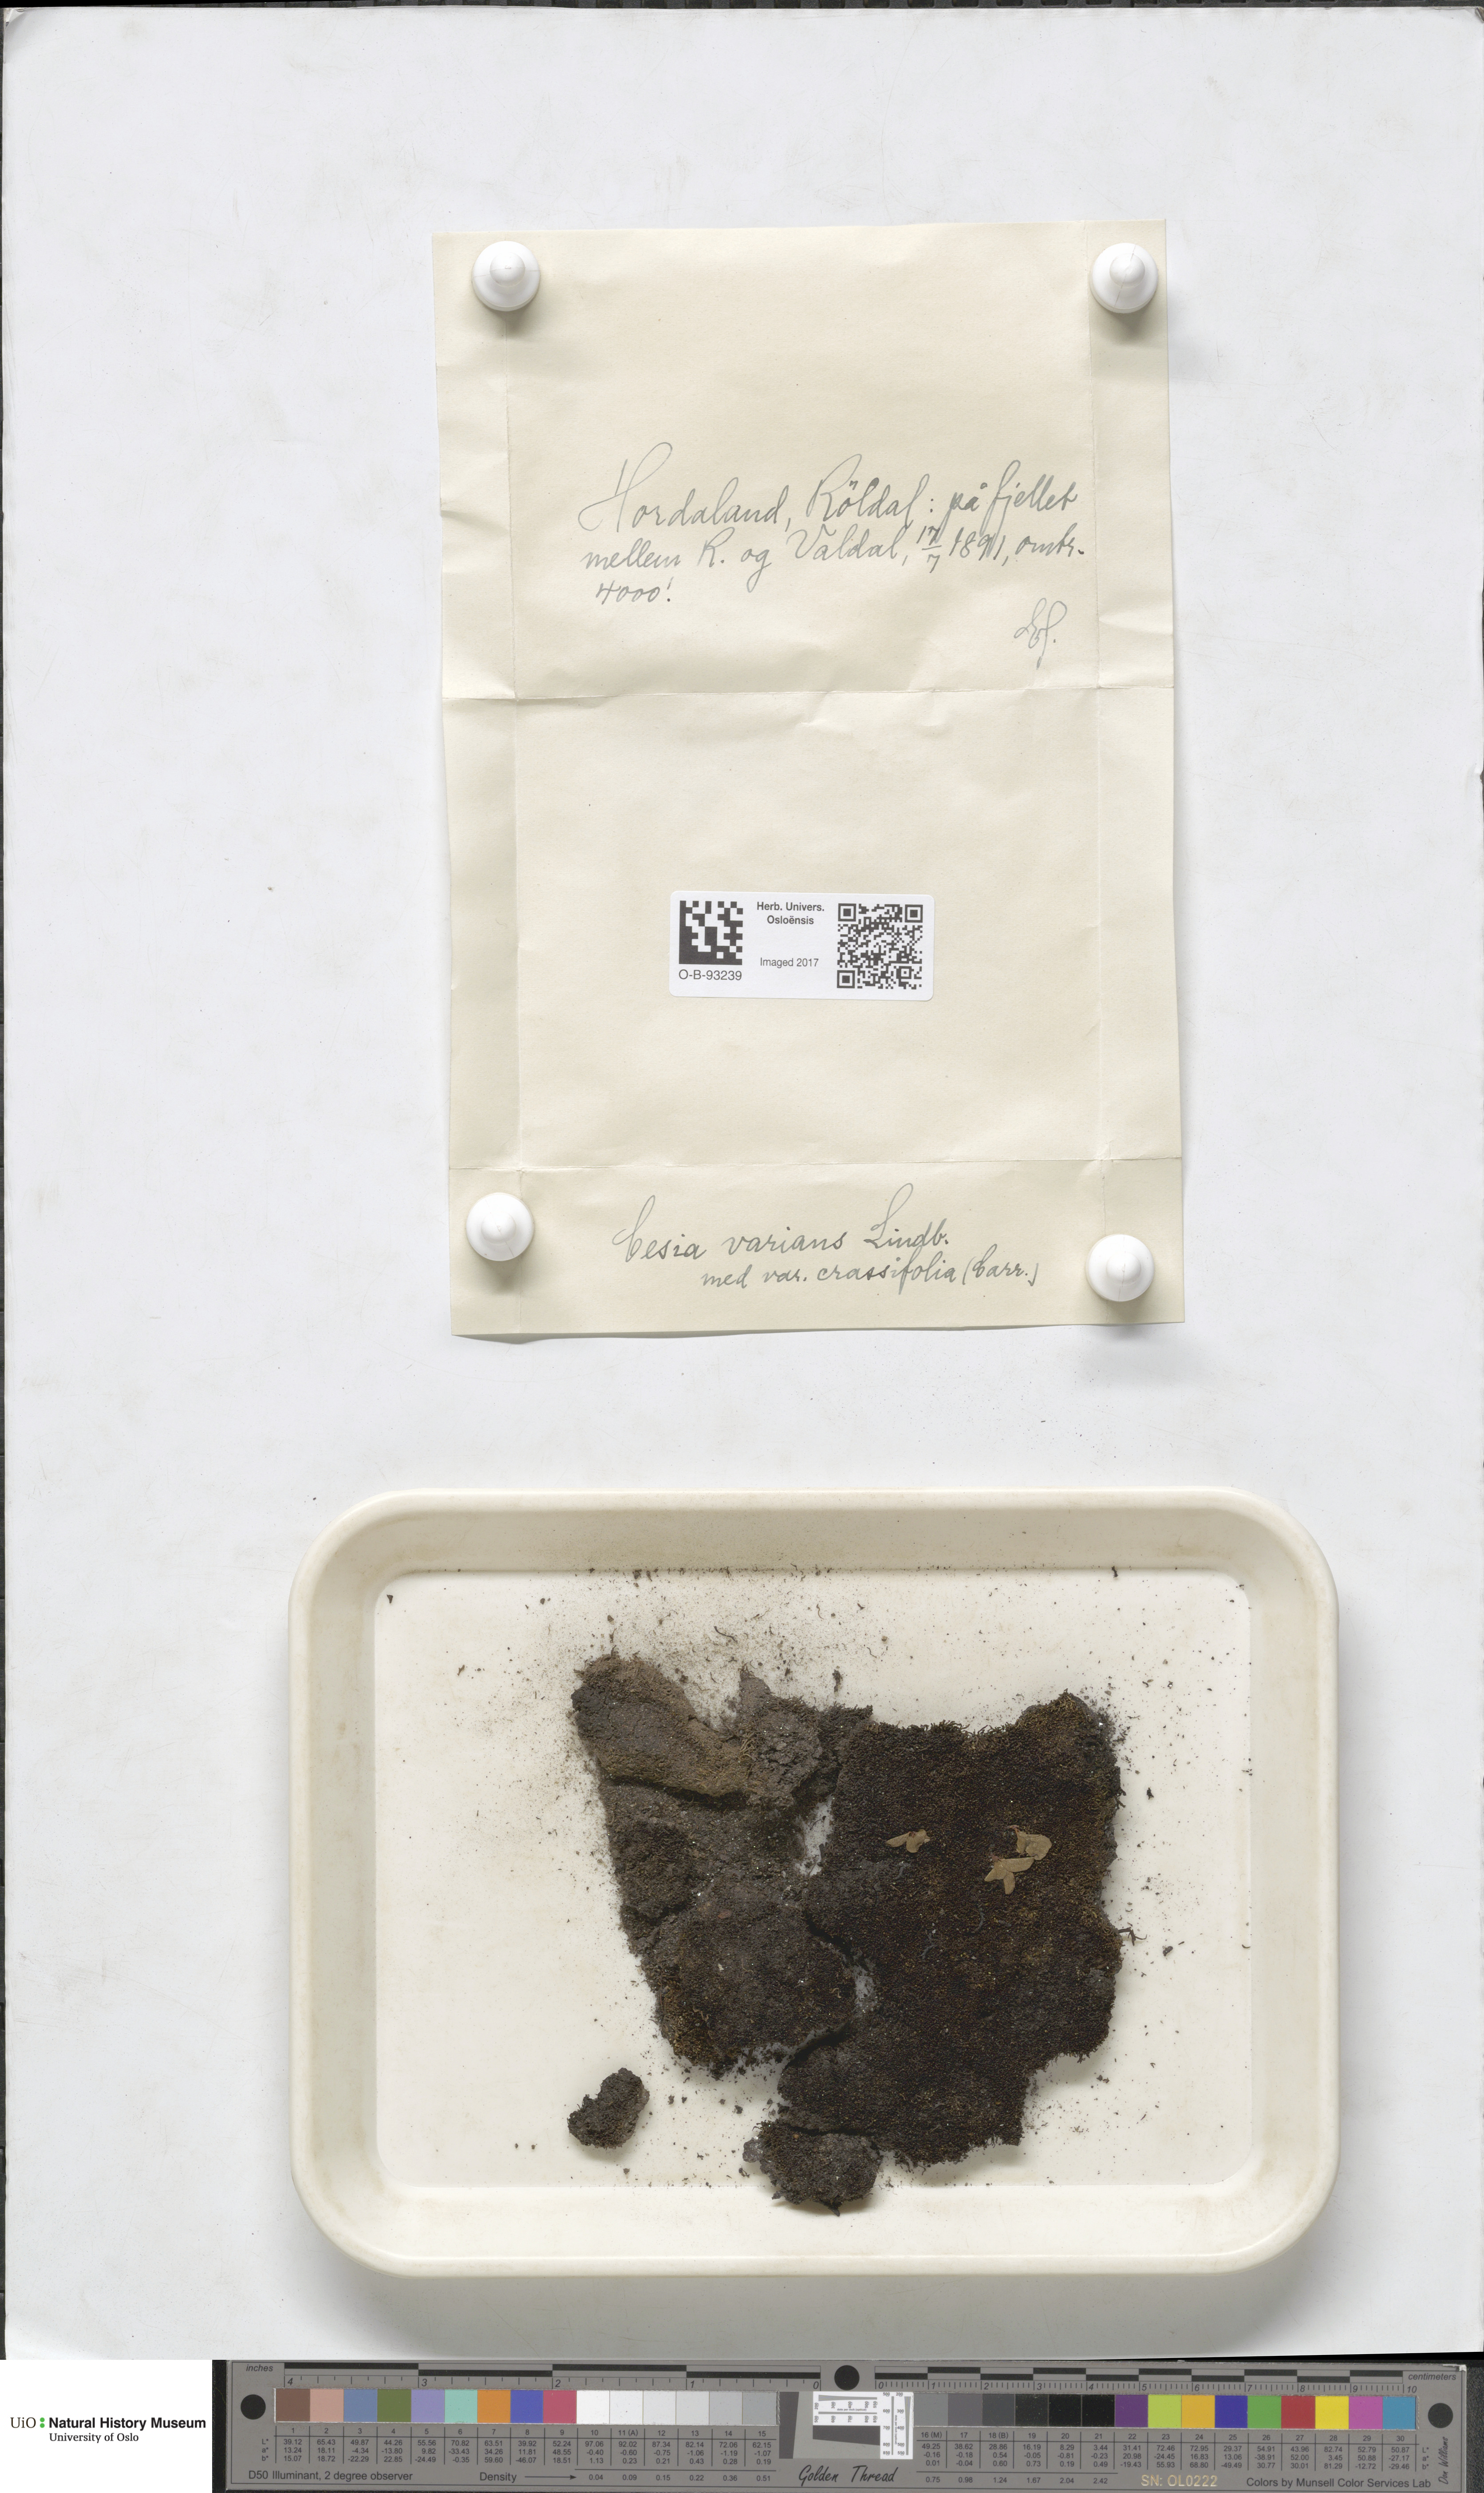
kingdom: Plantae
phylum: Marchantiophyta
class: Jungermanniopsida
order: Jungermanniales
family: Gymnomitriaceae
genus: Gymnomitrion
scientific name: Gymnomitrion brevissimum
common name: Snow rustwort
